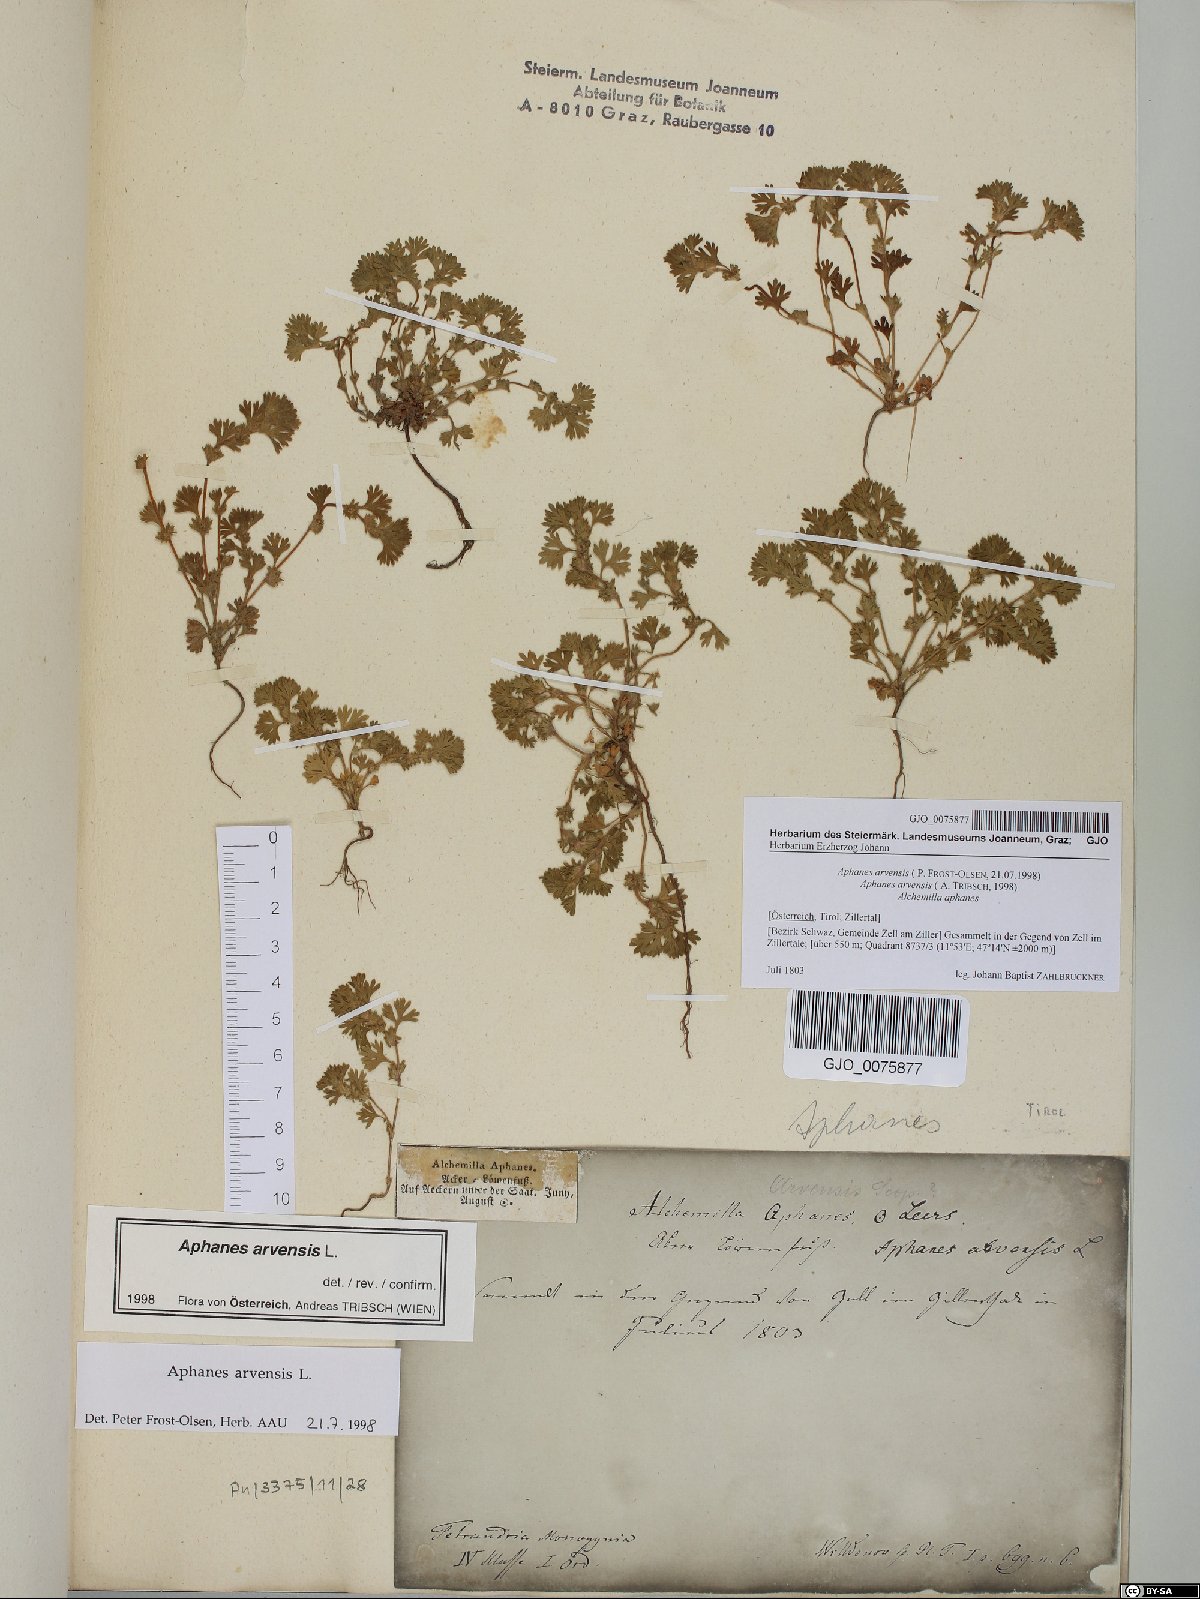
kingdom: Plantae
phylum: Tracheophyta
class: Magnoliopsida
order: Rosales
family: Rosaceae
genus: Aphanes
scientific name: Aphanes arvensis
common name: Parsley-piert
